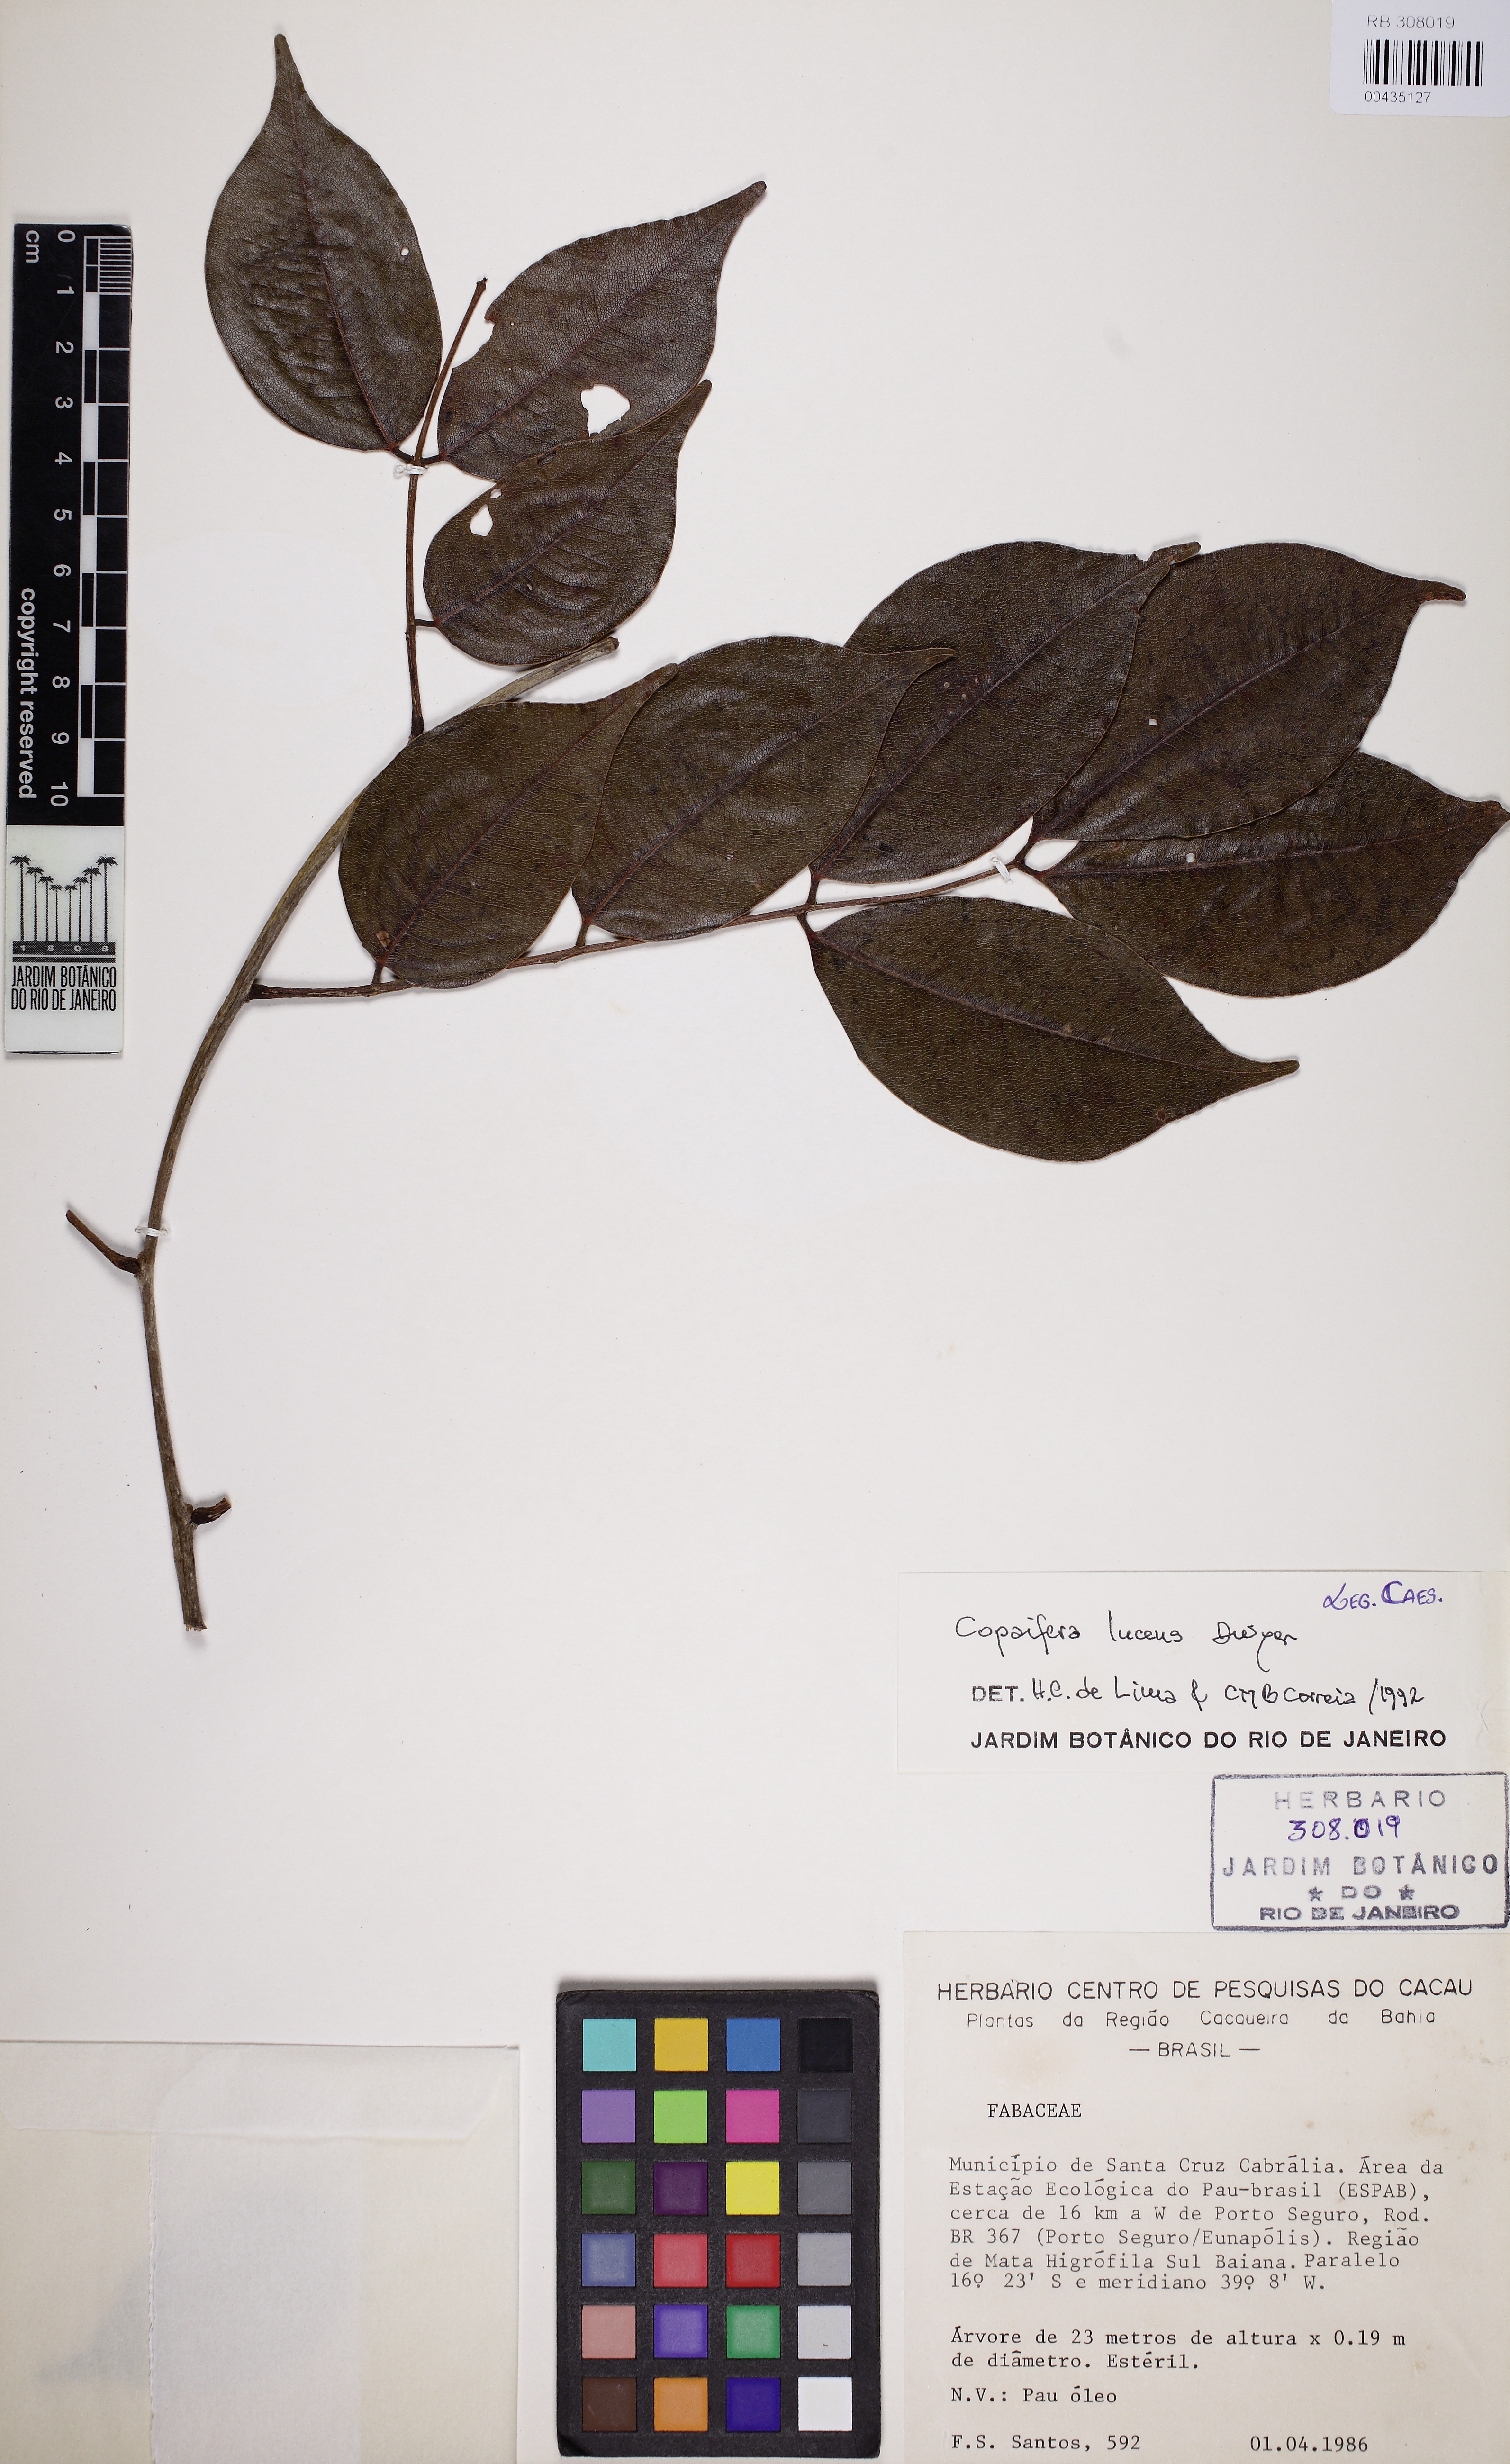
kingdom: Plantae
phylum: Tracheophyta
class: Magnoliopsida
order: Fabales
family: Fabaceae
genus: Copaifera
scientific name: Copaifera lucens
